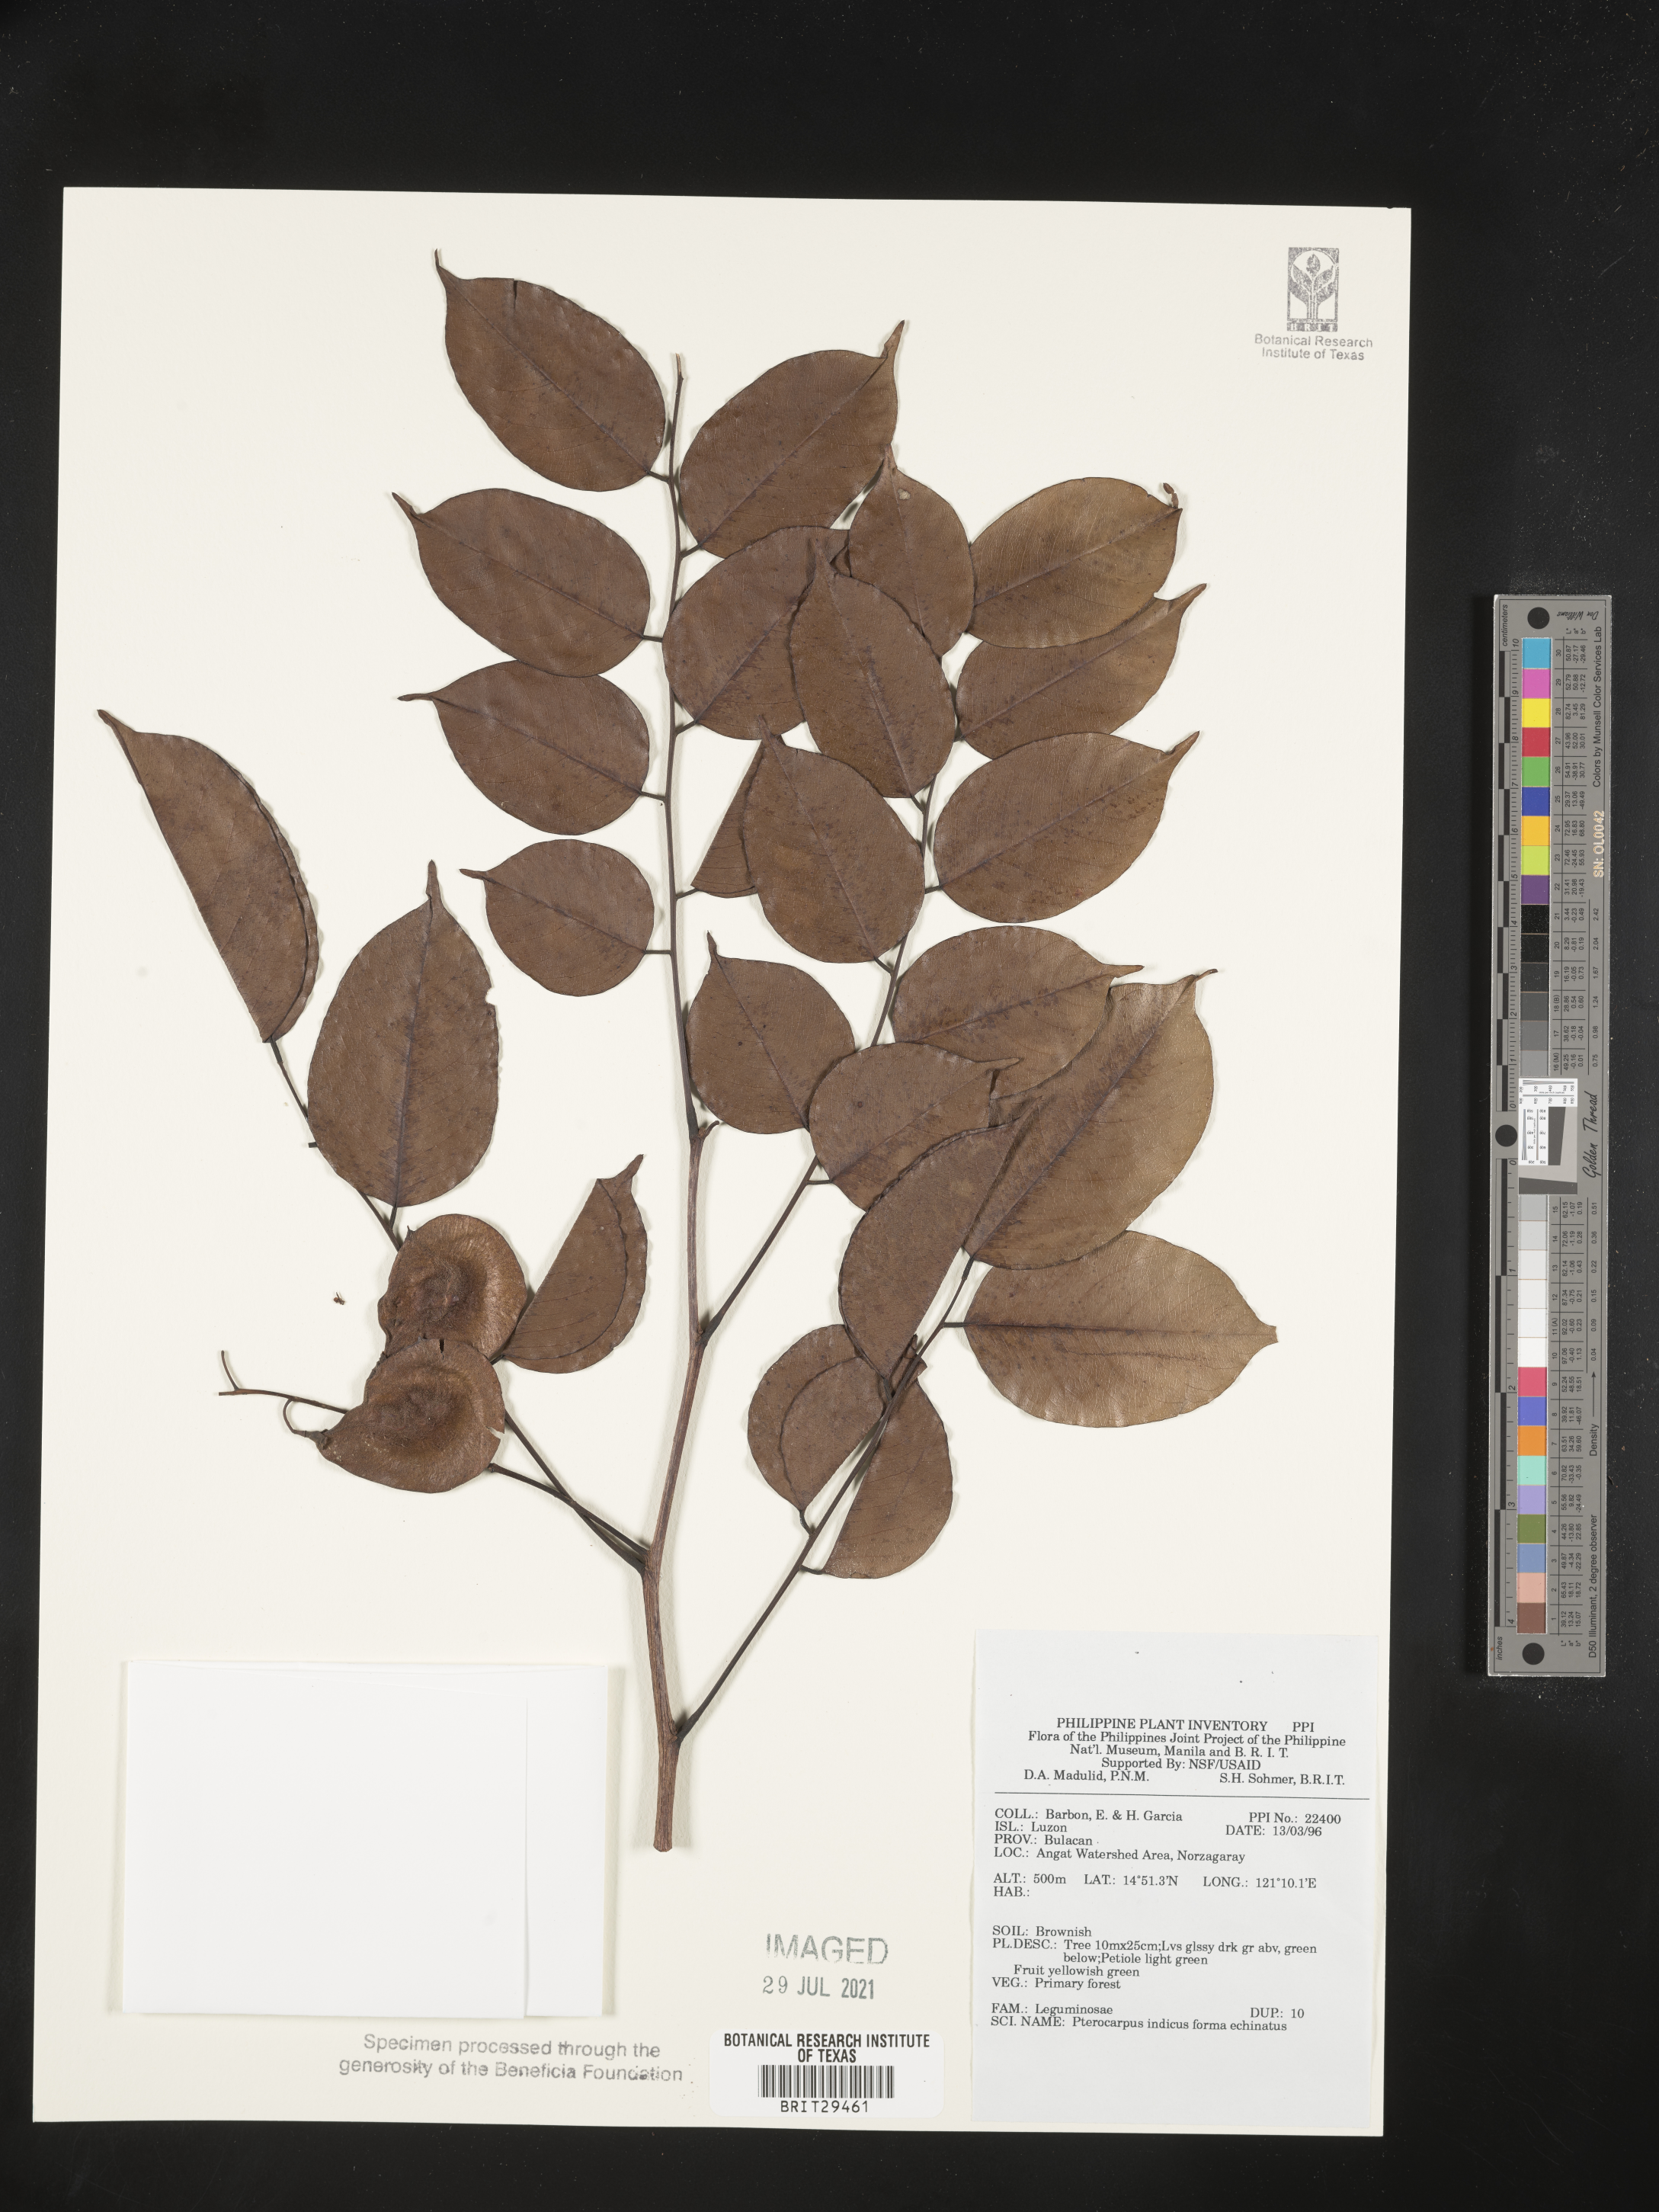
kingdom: Plantae
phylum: Tracheophyta
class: Magnoliopsida
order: Fabales
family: Fabaceae
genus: Pterocarpus
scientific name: Pterocarpus indicus
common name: Burmese rosewood
